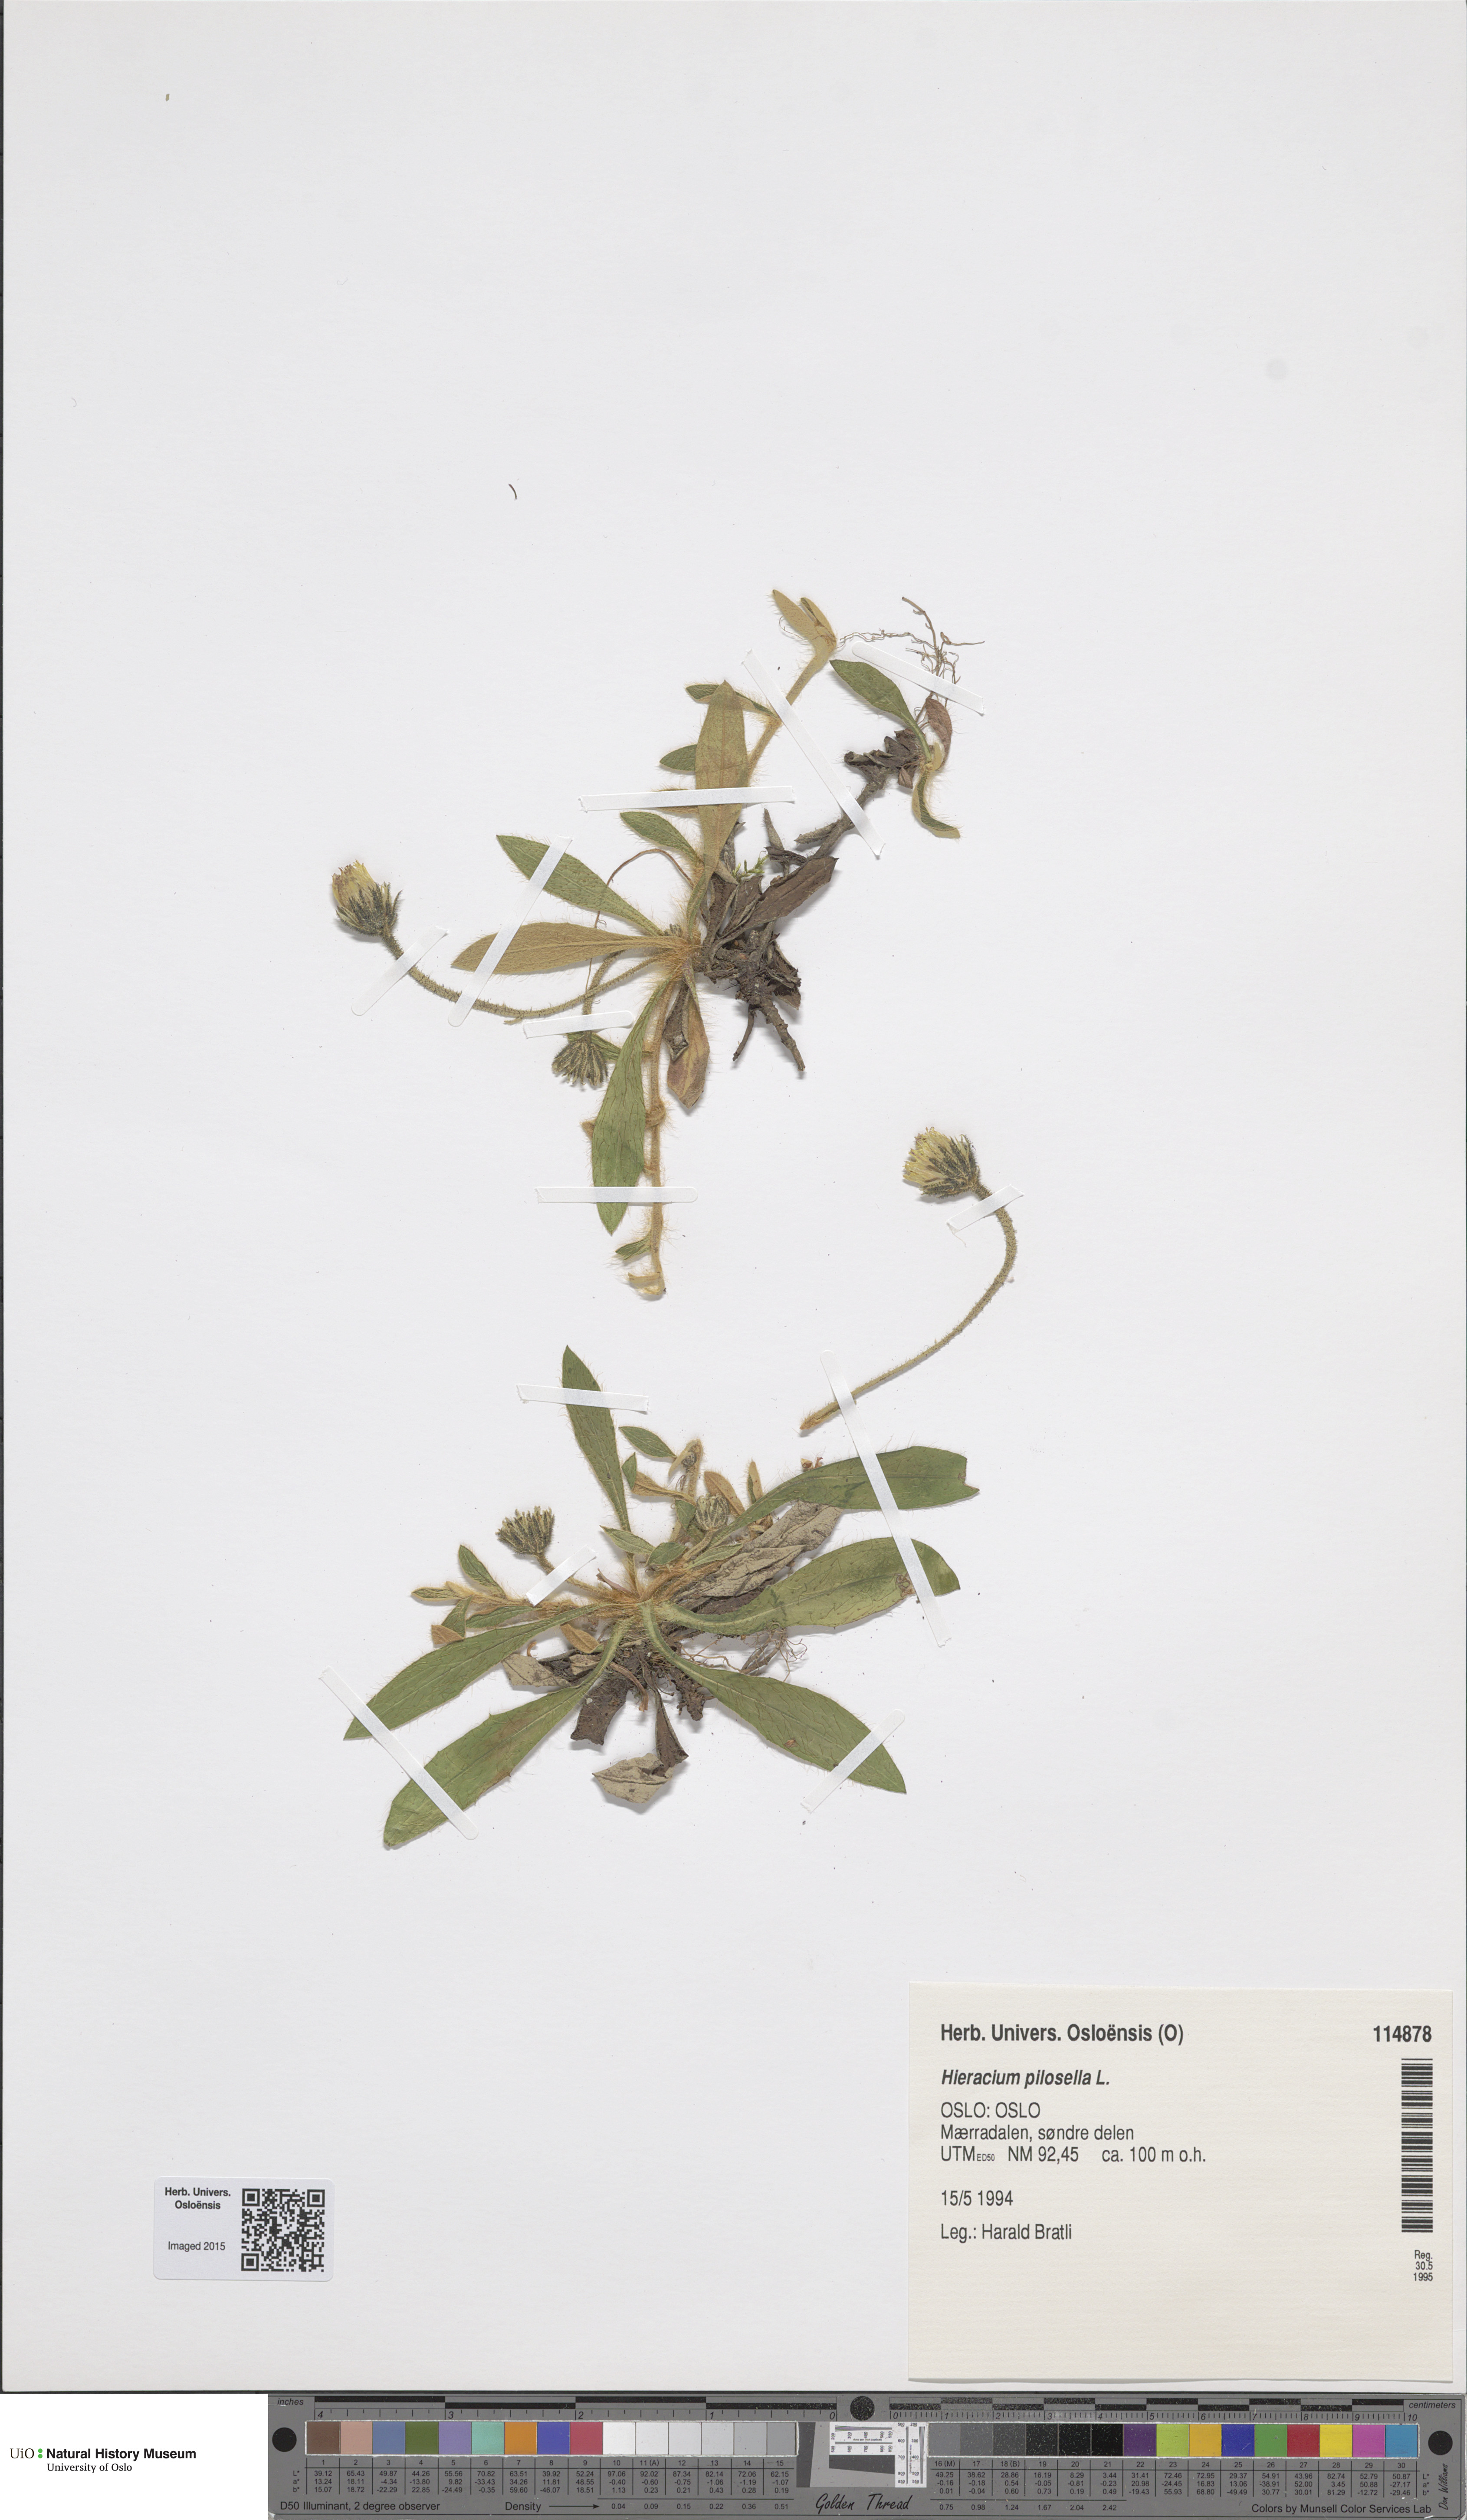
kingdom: Plantae
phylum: Tracheophyta
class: Magnoliopsida
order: Asterales
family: Asteraceae
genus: Pilosella
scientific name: Pilosella officinarum
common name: Mouse-ear hawkweed
